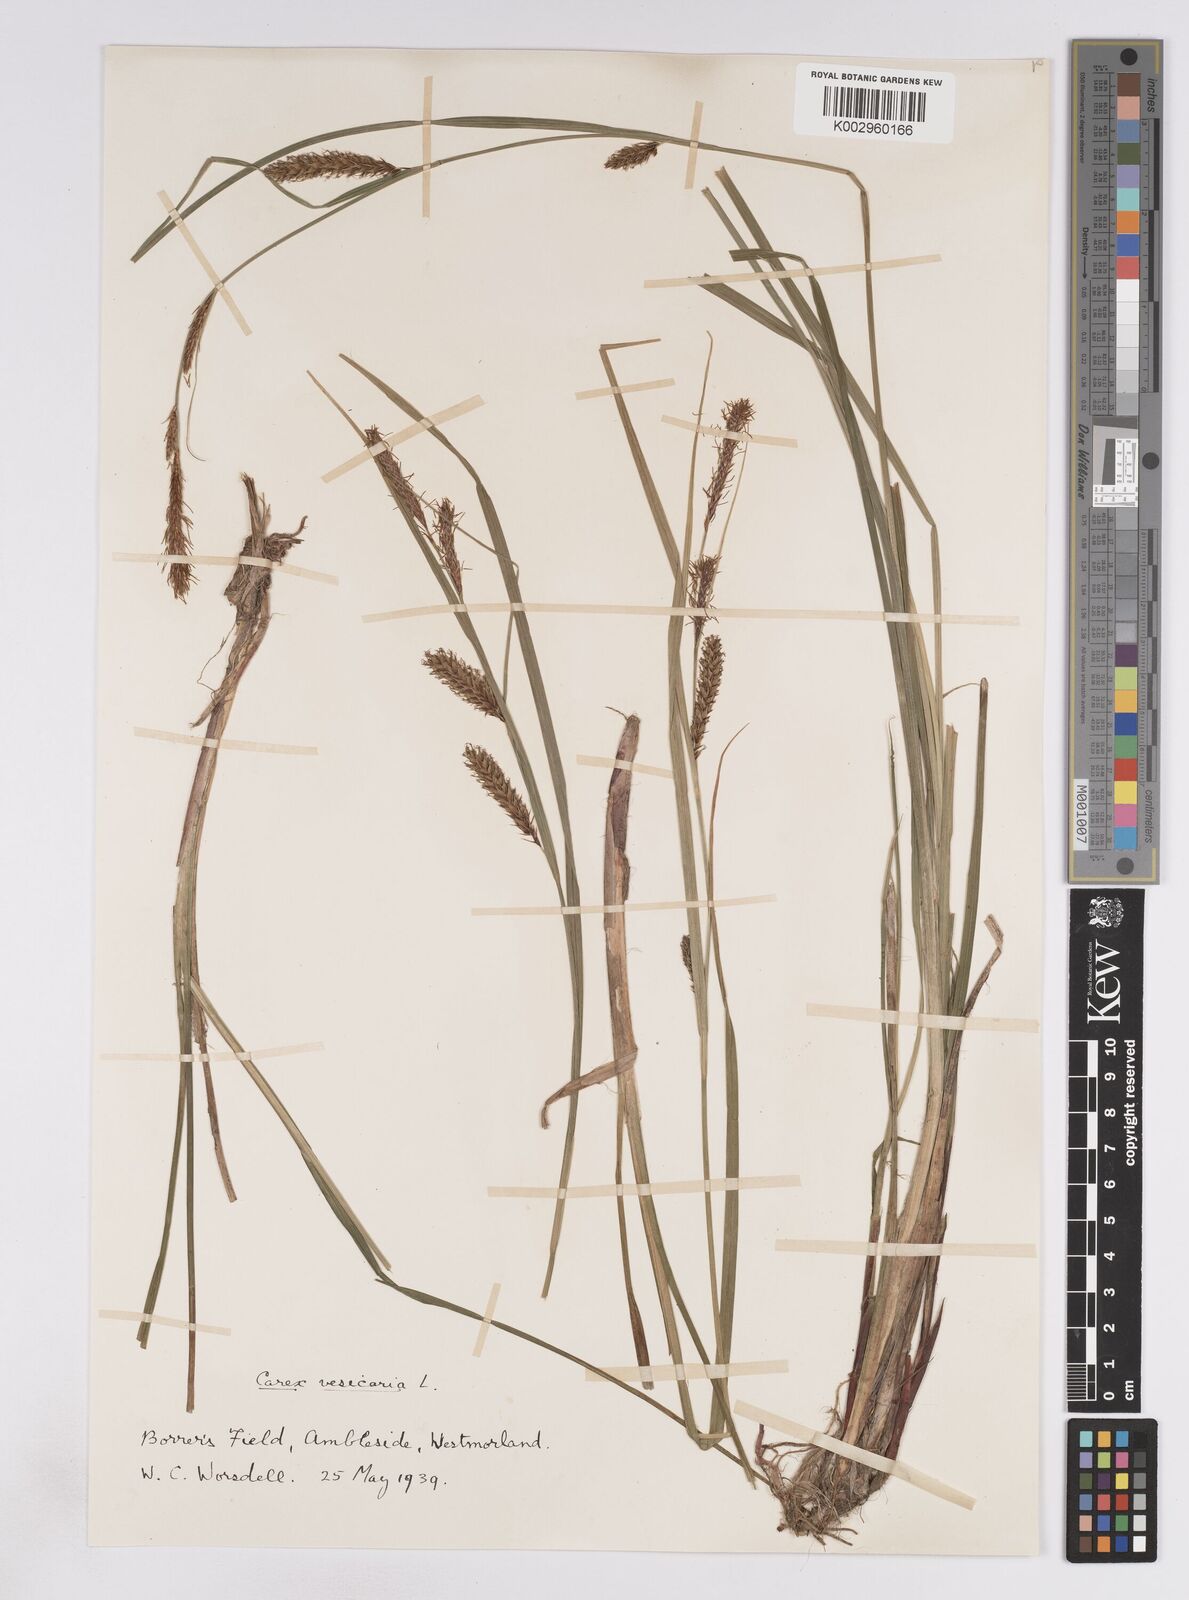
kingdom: Plantae
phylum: Tracheophyta
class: Liliopsida
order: Poales
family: Cyperaceae
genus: Carex
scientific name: Carex vesicaria
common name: Bladder-sedge
